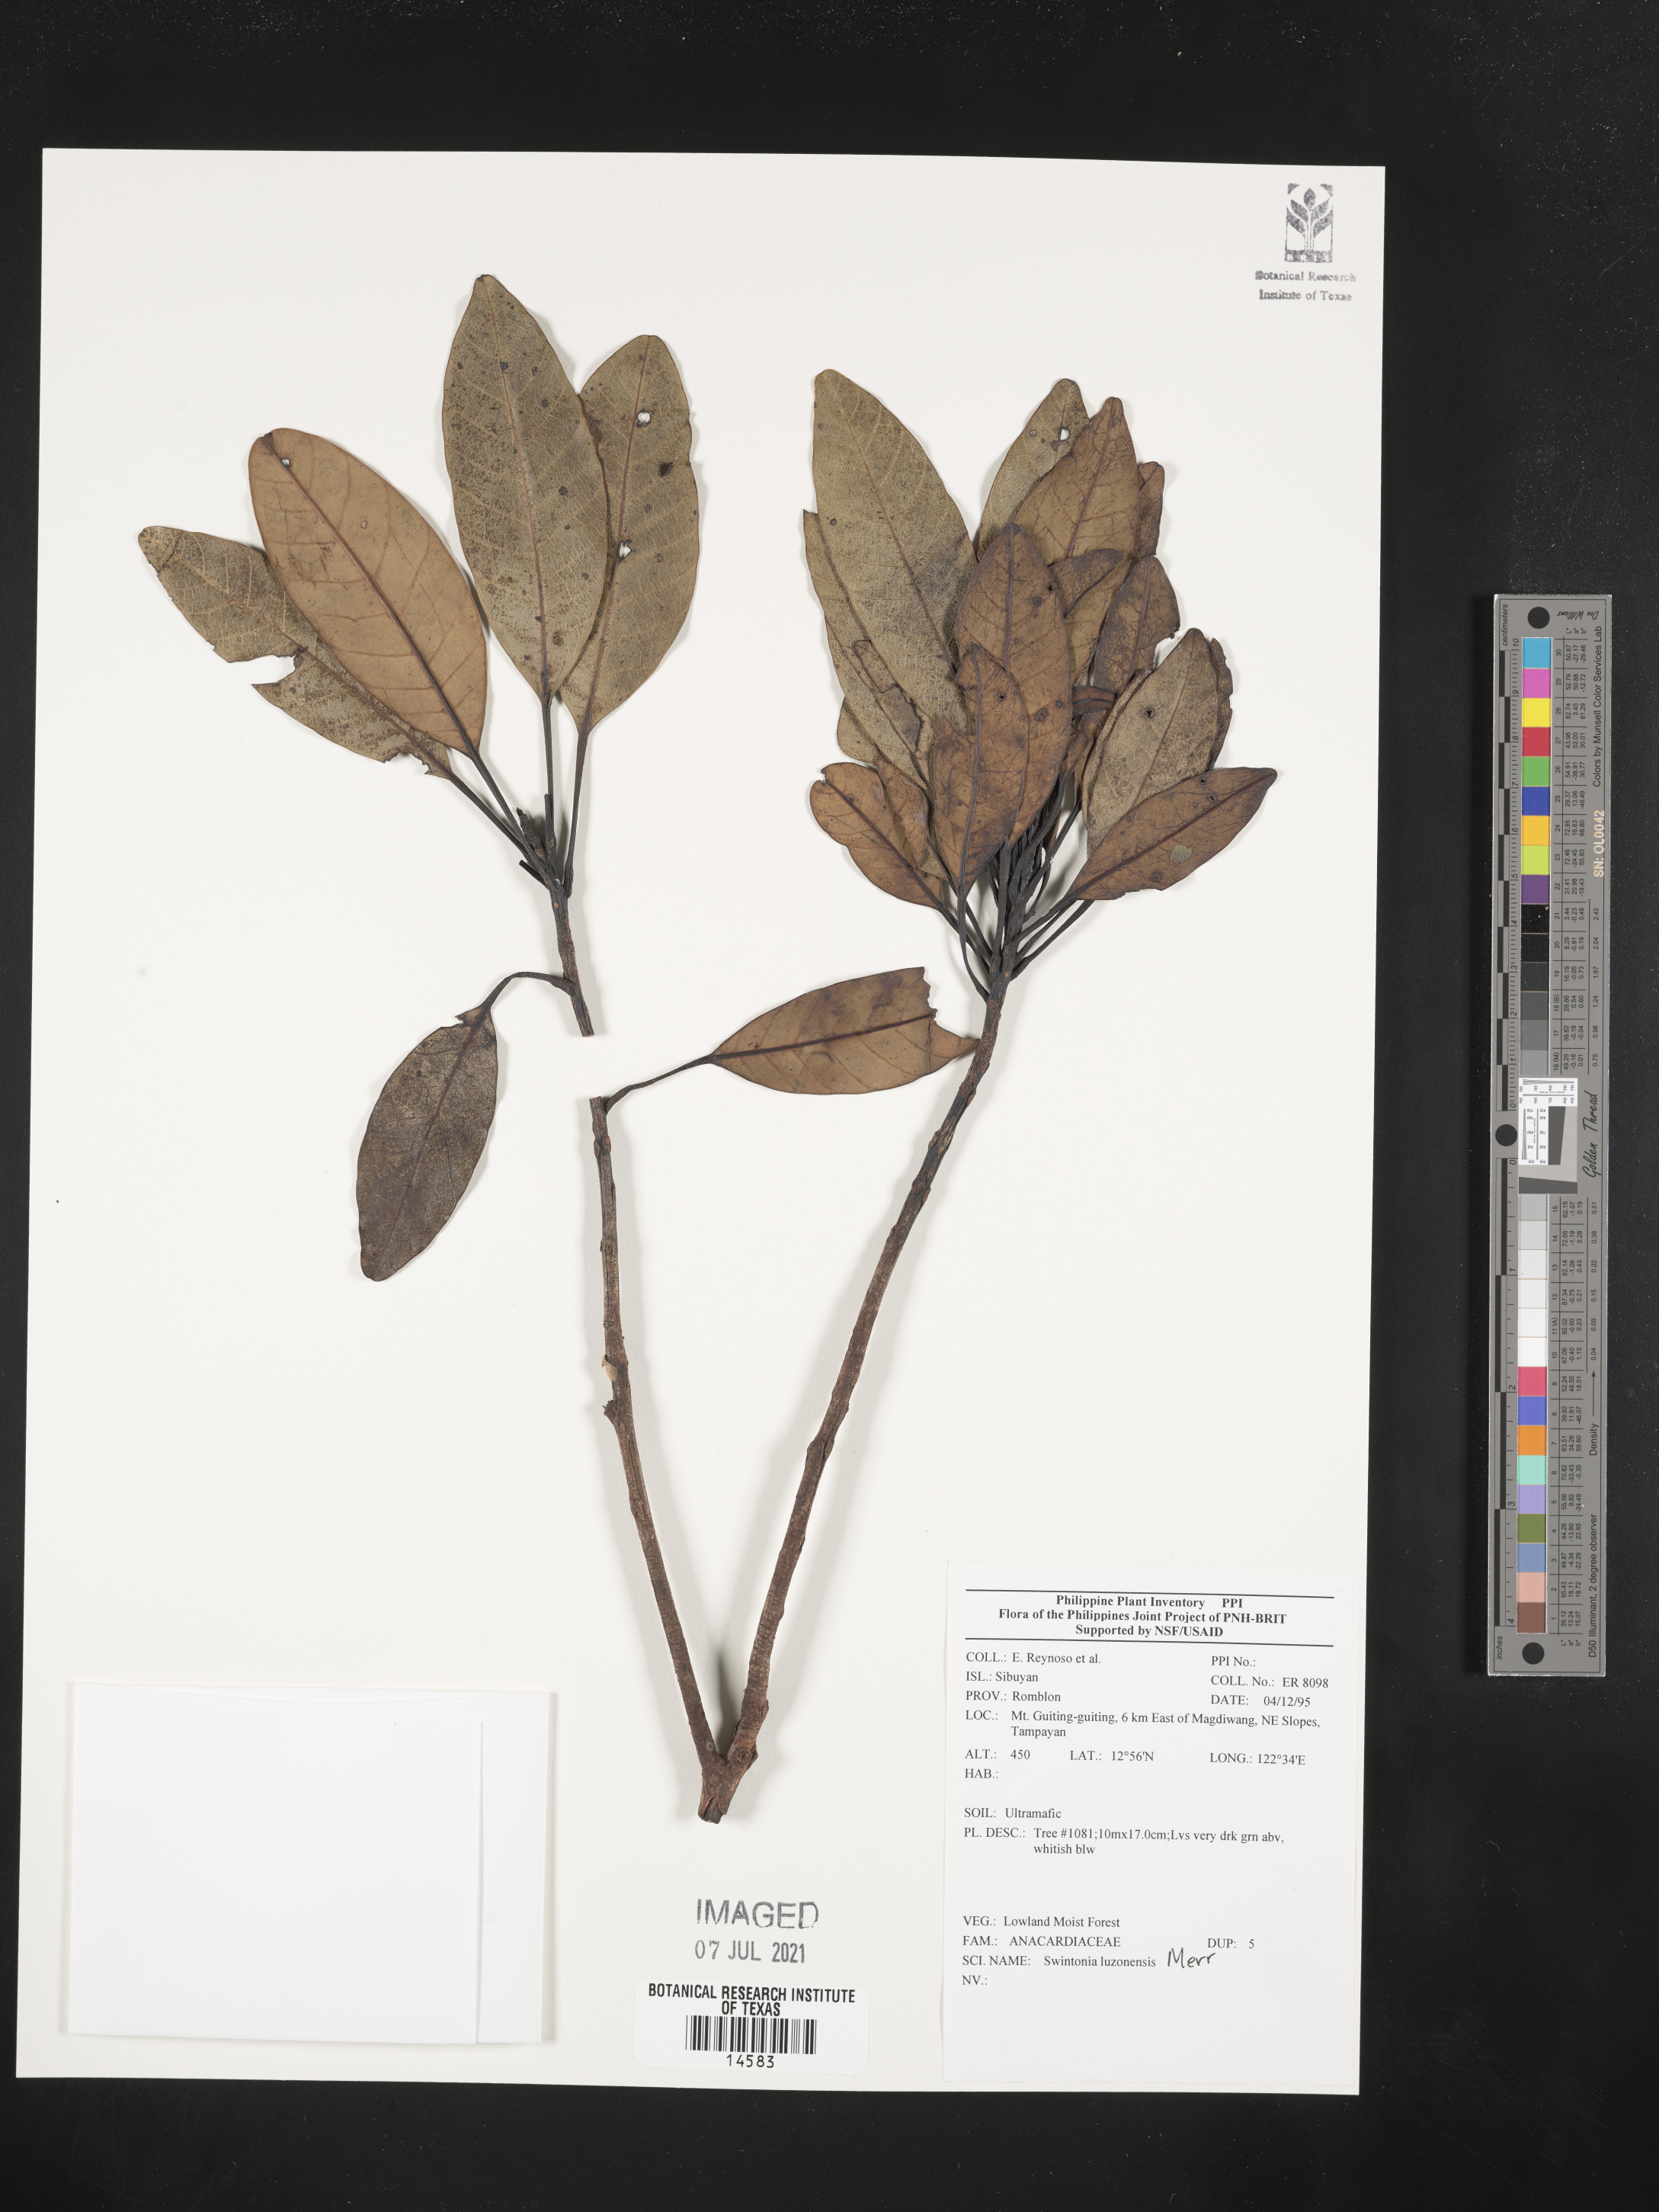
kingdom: Plantae
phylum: Tracheophyta
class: Magnoliopsida
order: Sapindales
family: Anacardiaceae
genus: Swintonia
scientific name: Swintonia acuta
